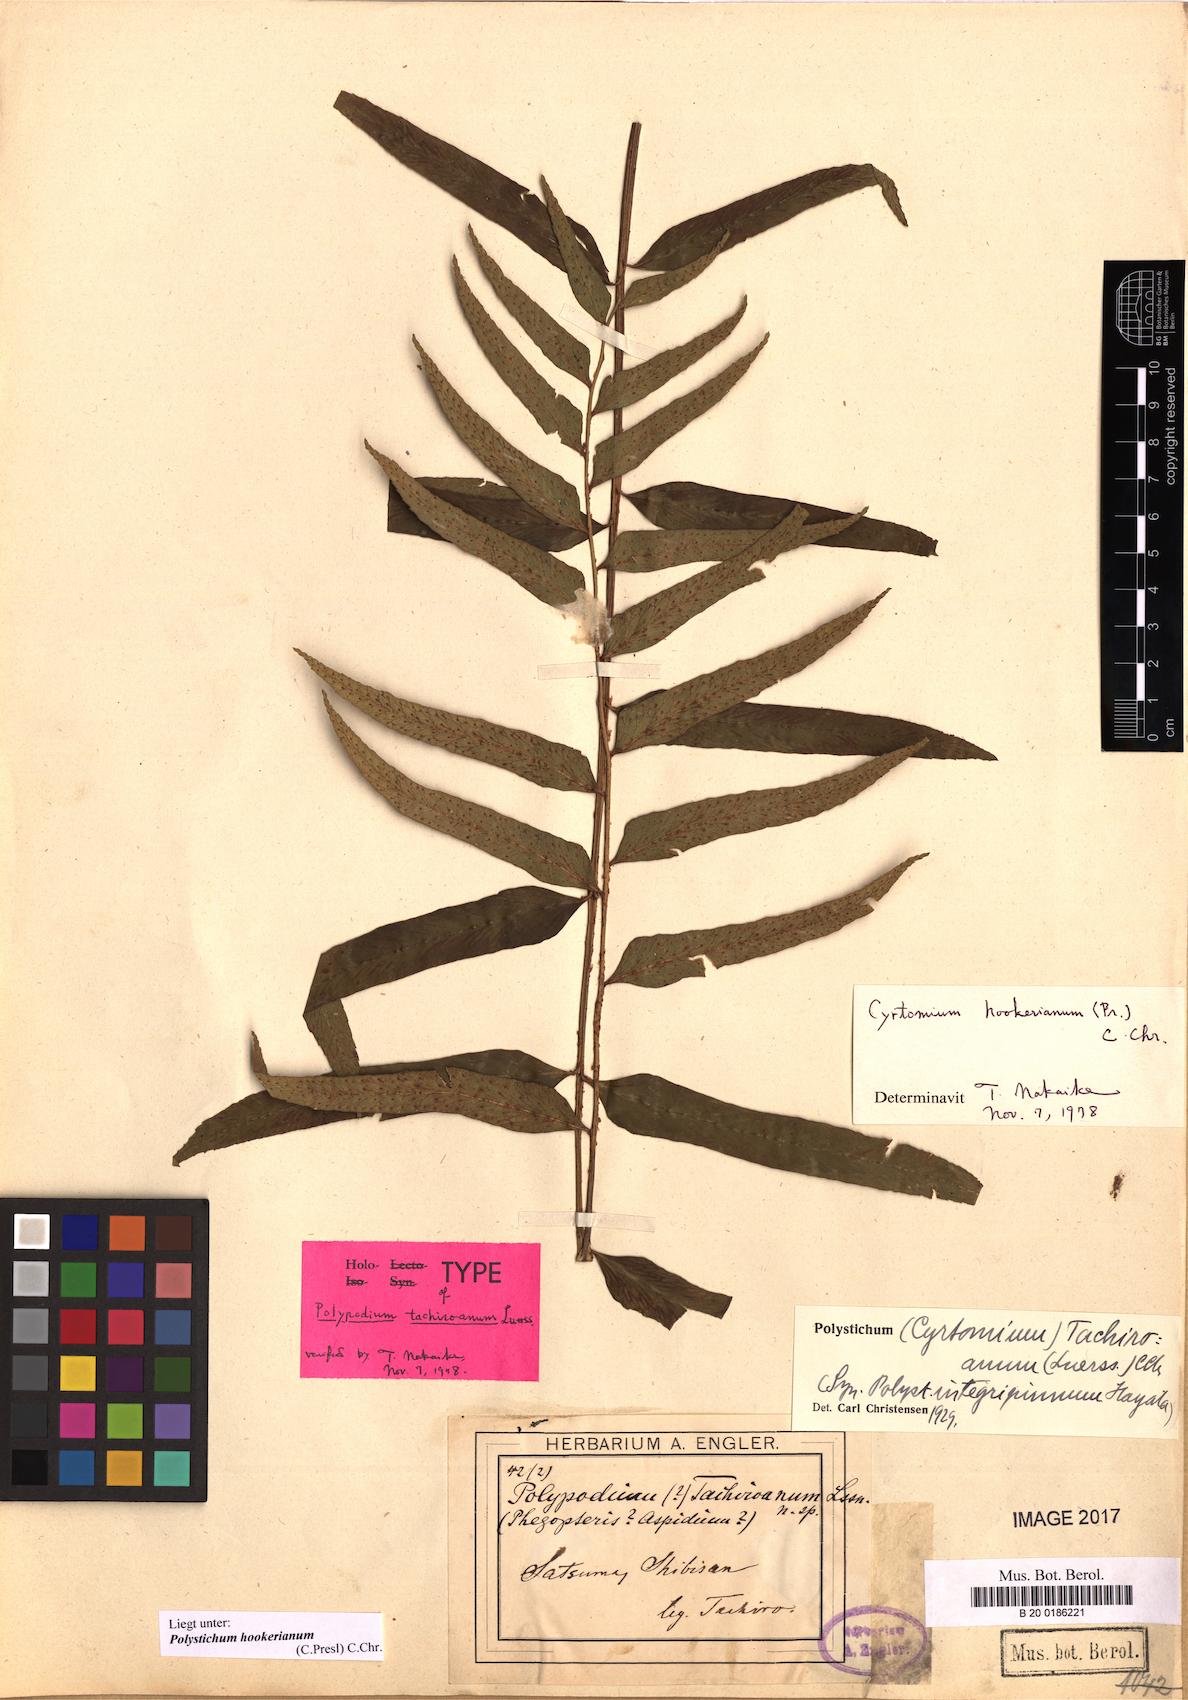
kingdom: Plantae
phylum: Tracheophyta
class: Polypodiopsida
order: Polypodiales
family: Dryopteridaceae
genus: Polystichum
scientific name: Polystichum hookerianum
